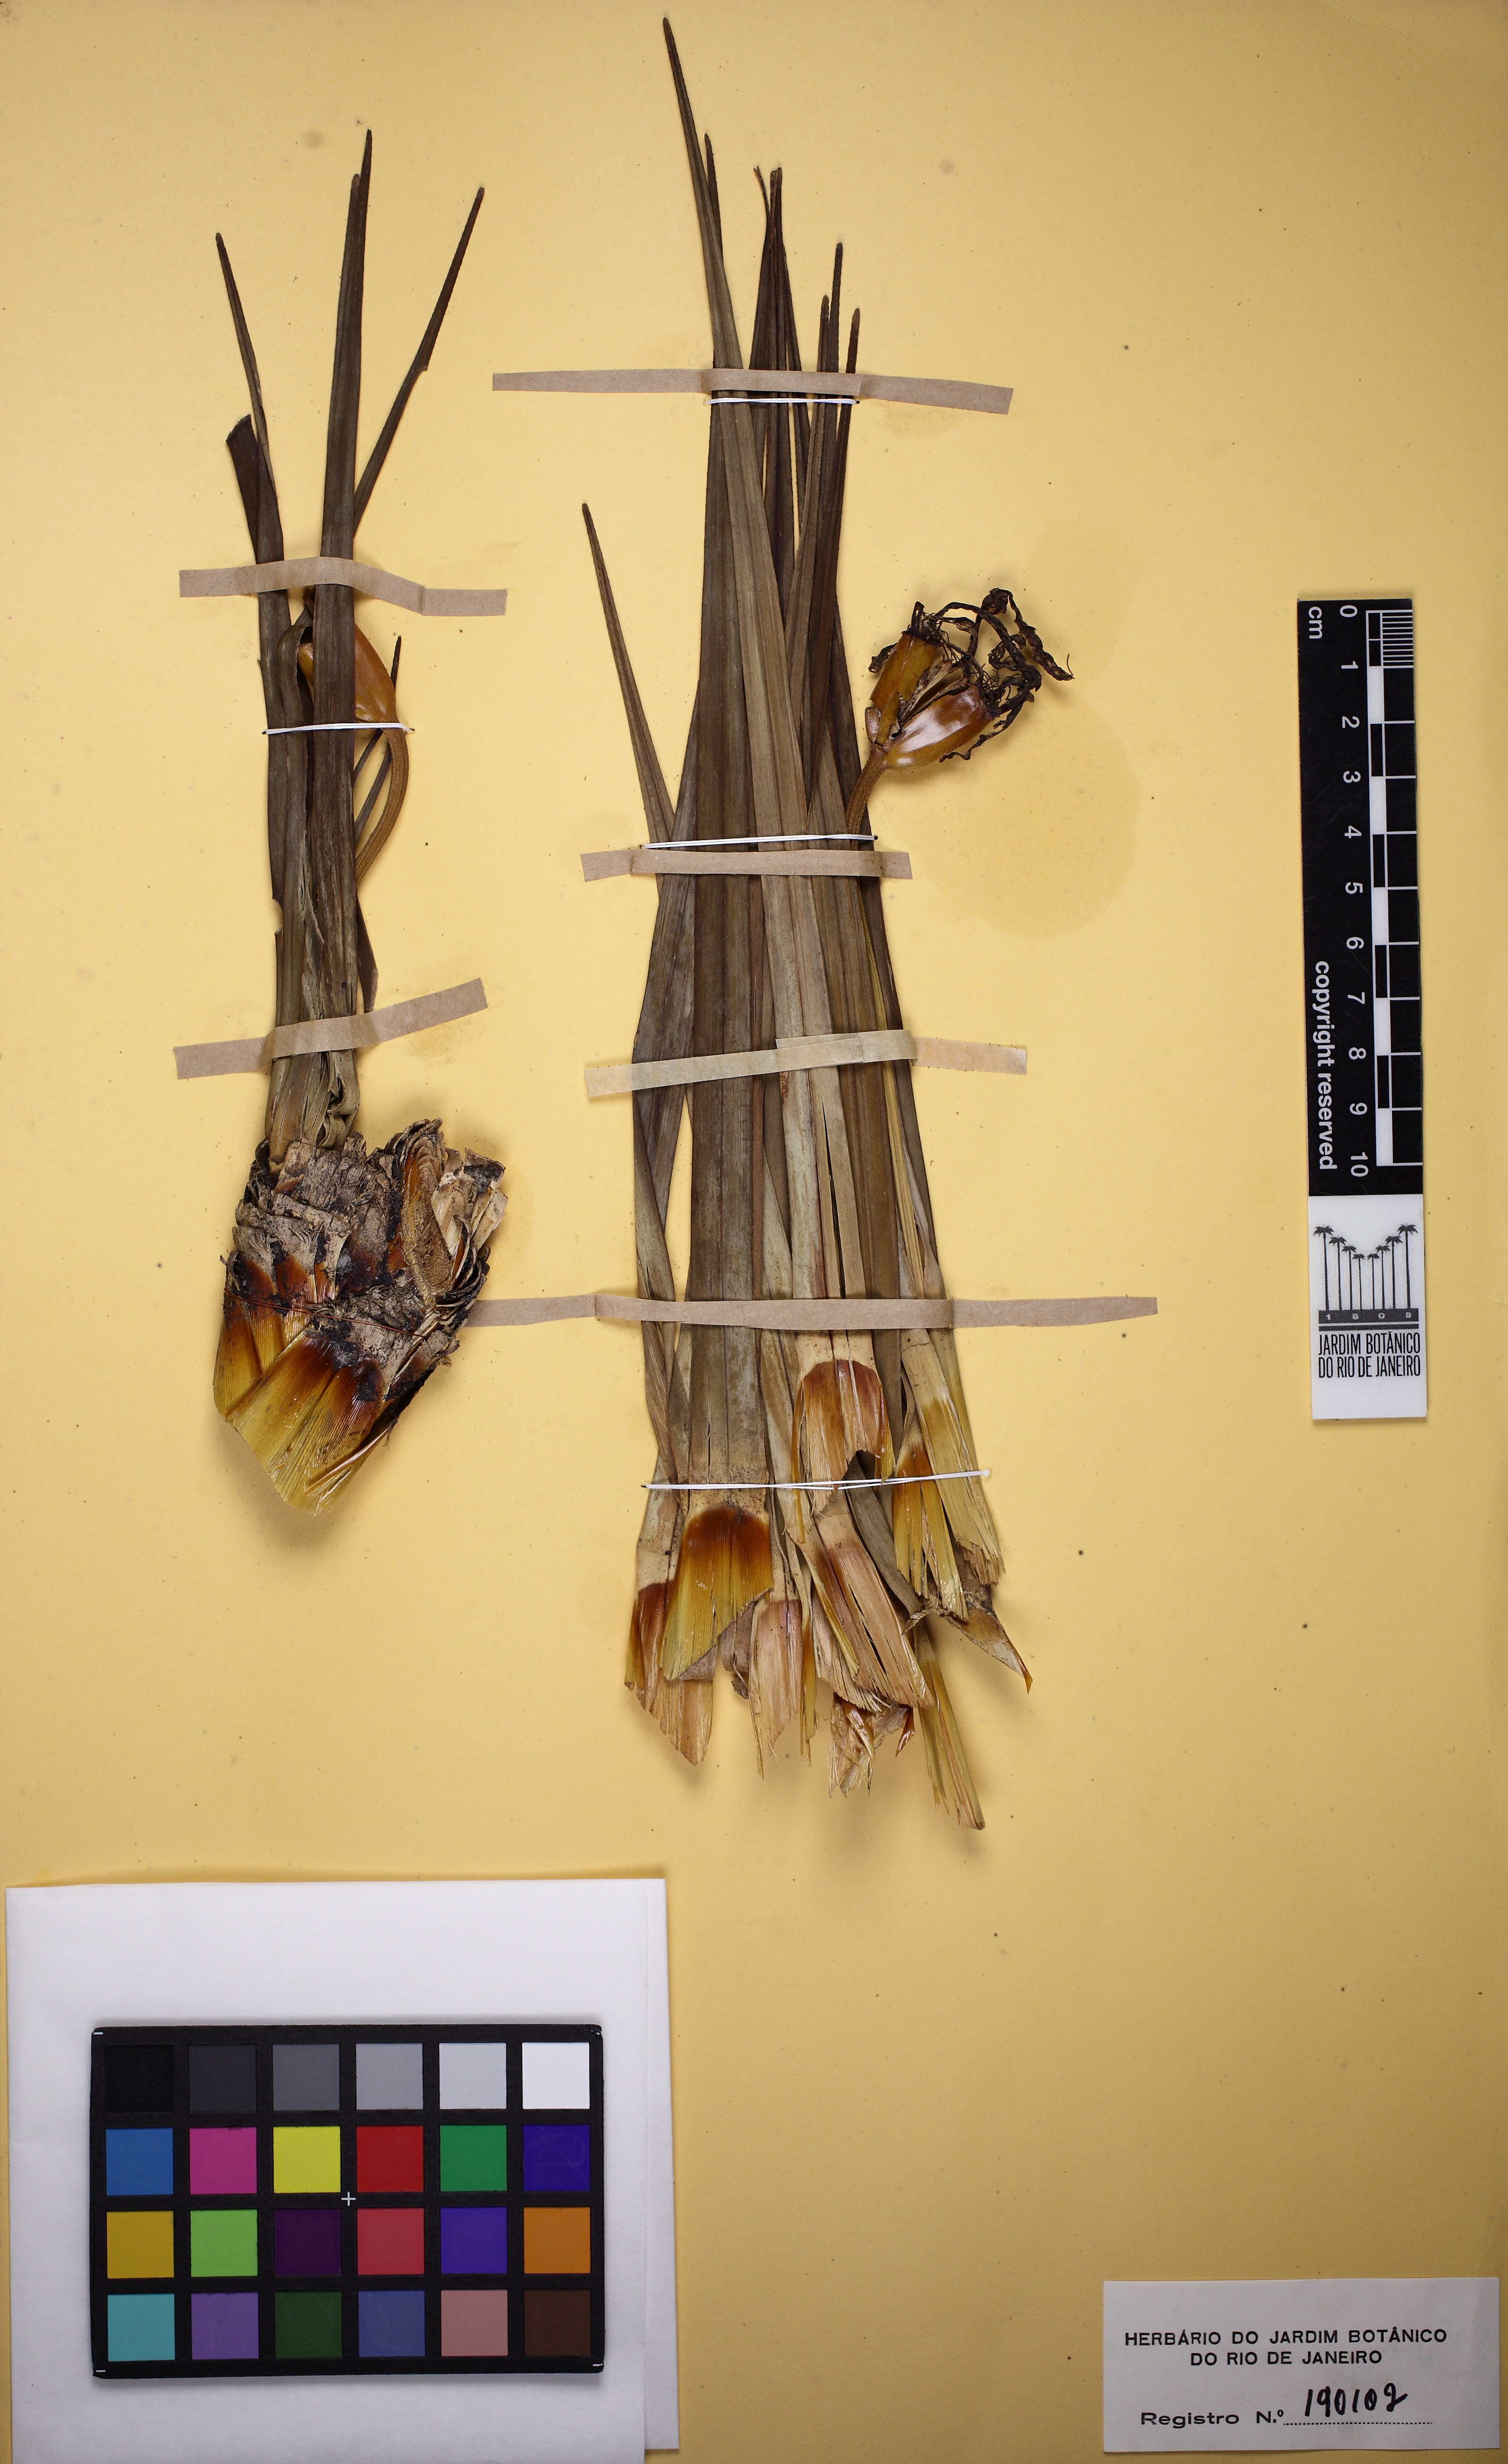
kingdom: Plantae
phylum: Tracheophyta
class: Liliopsida
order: Pandanales
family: Velloziaceae
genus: Vellozia
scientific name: Vellozia compacta
